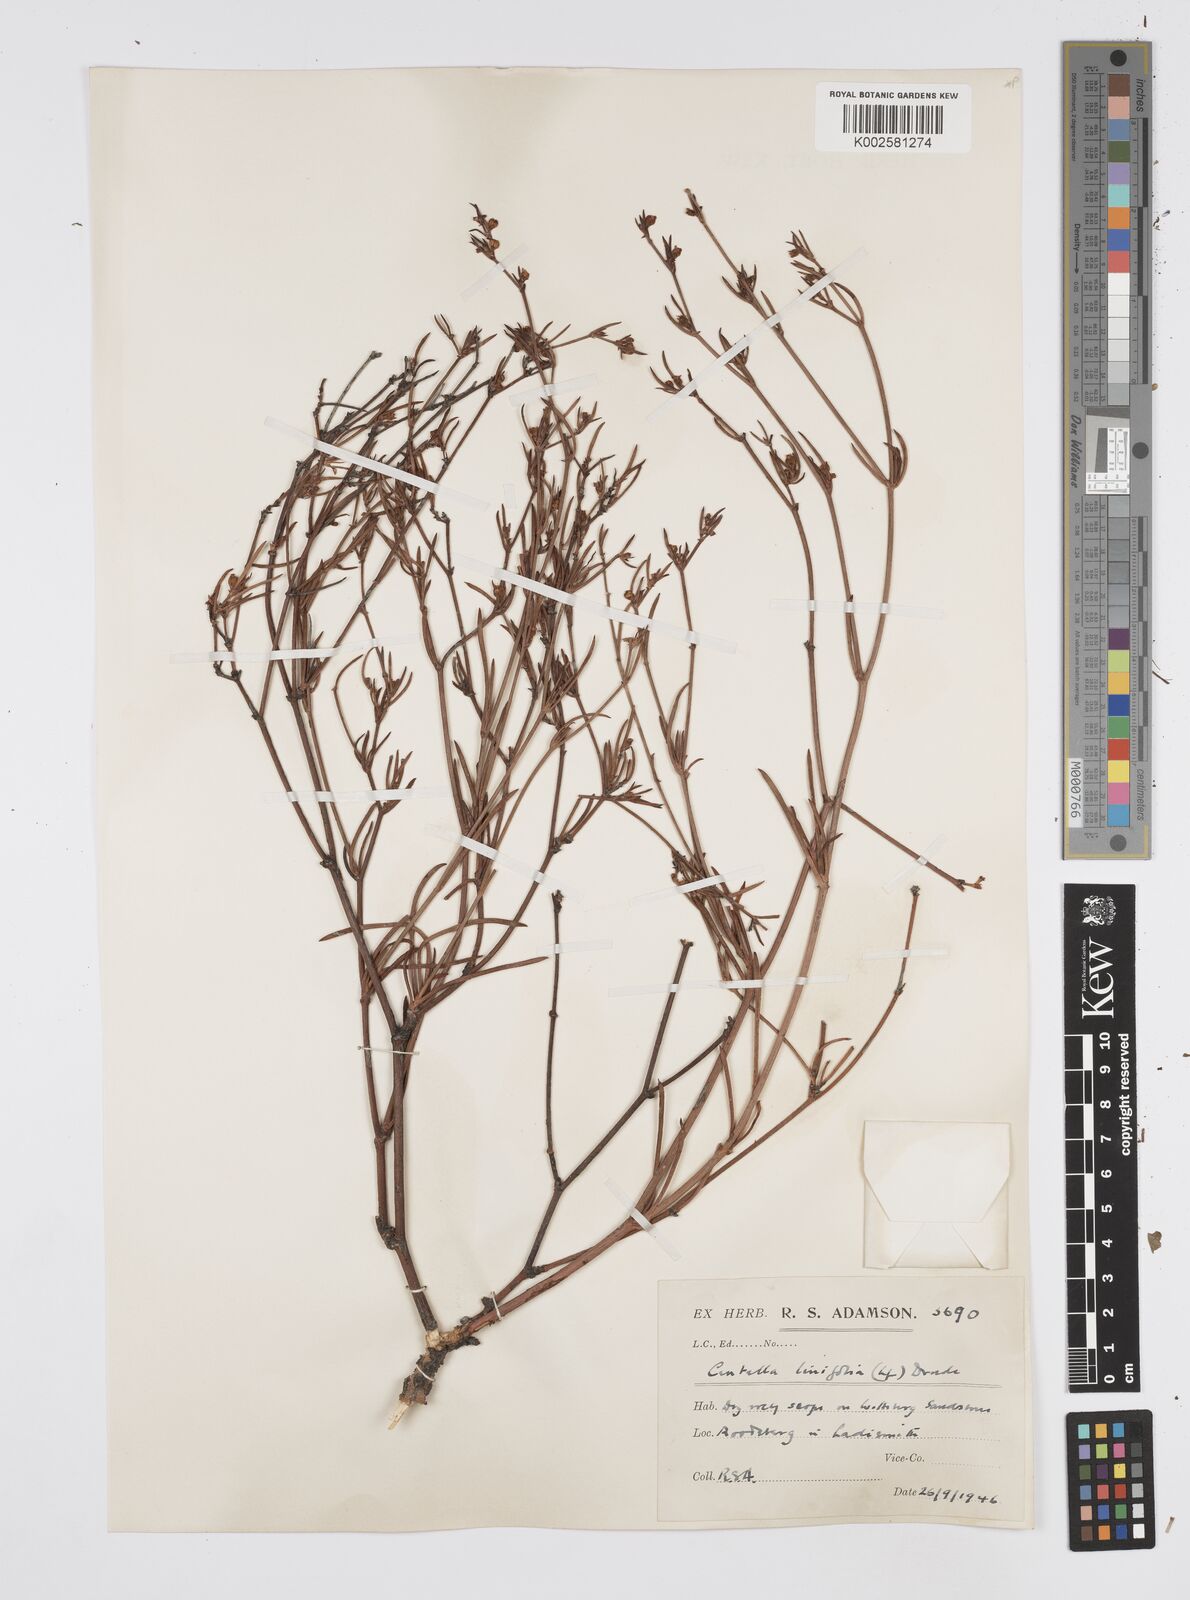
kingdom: Plantae
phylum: Tracheophyta
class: Magnoliopsida
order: Apiales
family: Apiaceae
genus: Centella
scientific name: Centella linifolia
